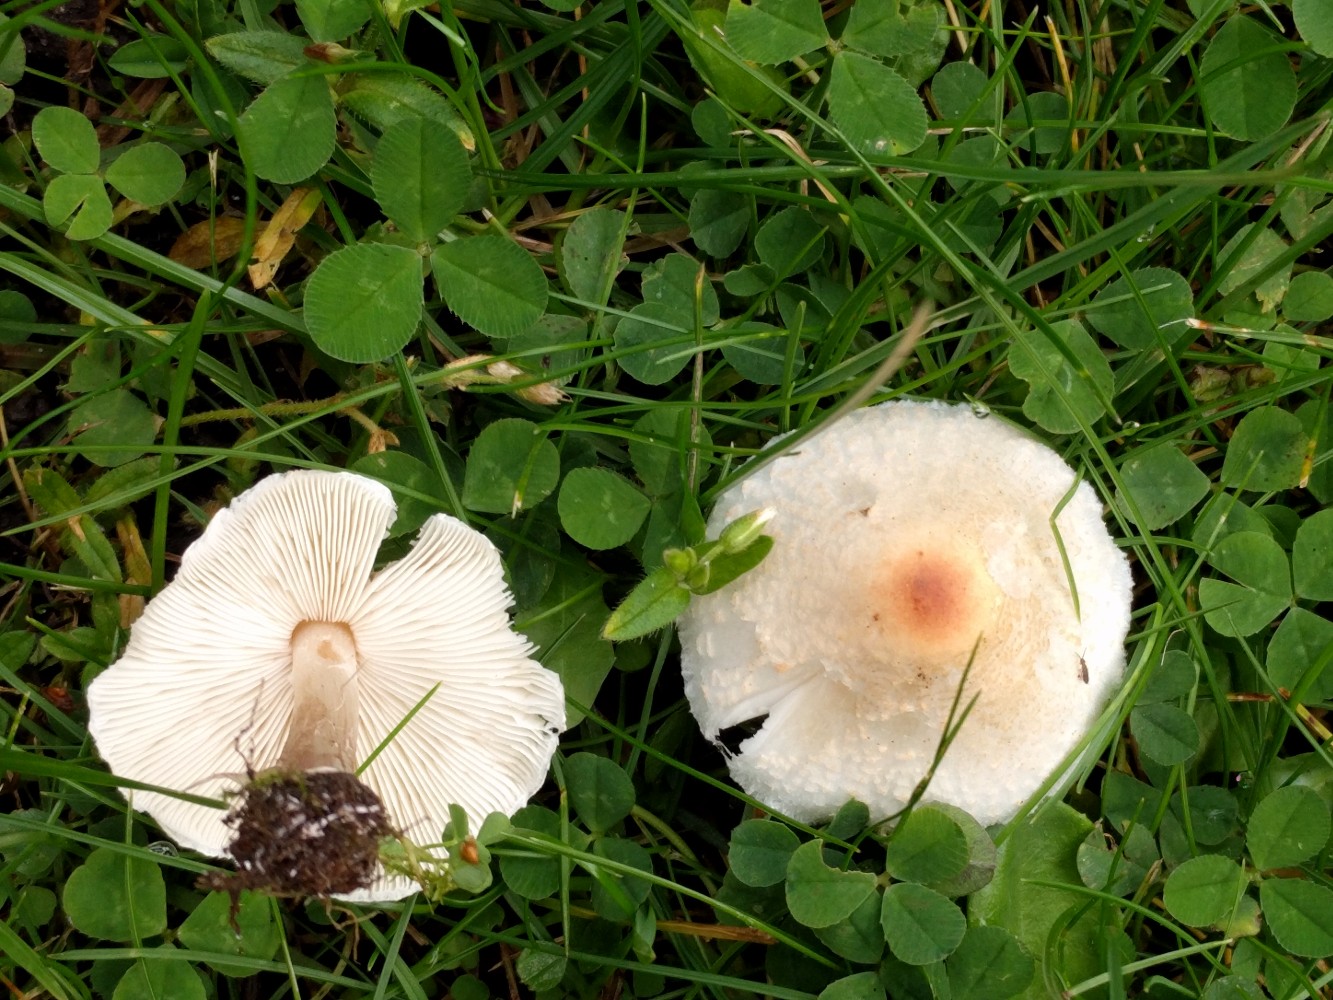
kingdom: Fungi
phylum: Basidiomycota
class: Agaricomycetes
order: Agaricales
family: Agaricaceae
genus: Lepiota
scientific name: Lepiota cristata
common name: stinkende parasolhat
